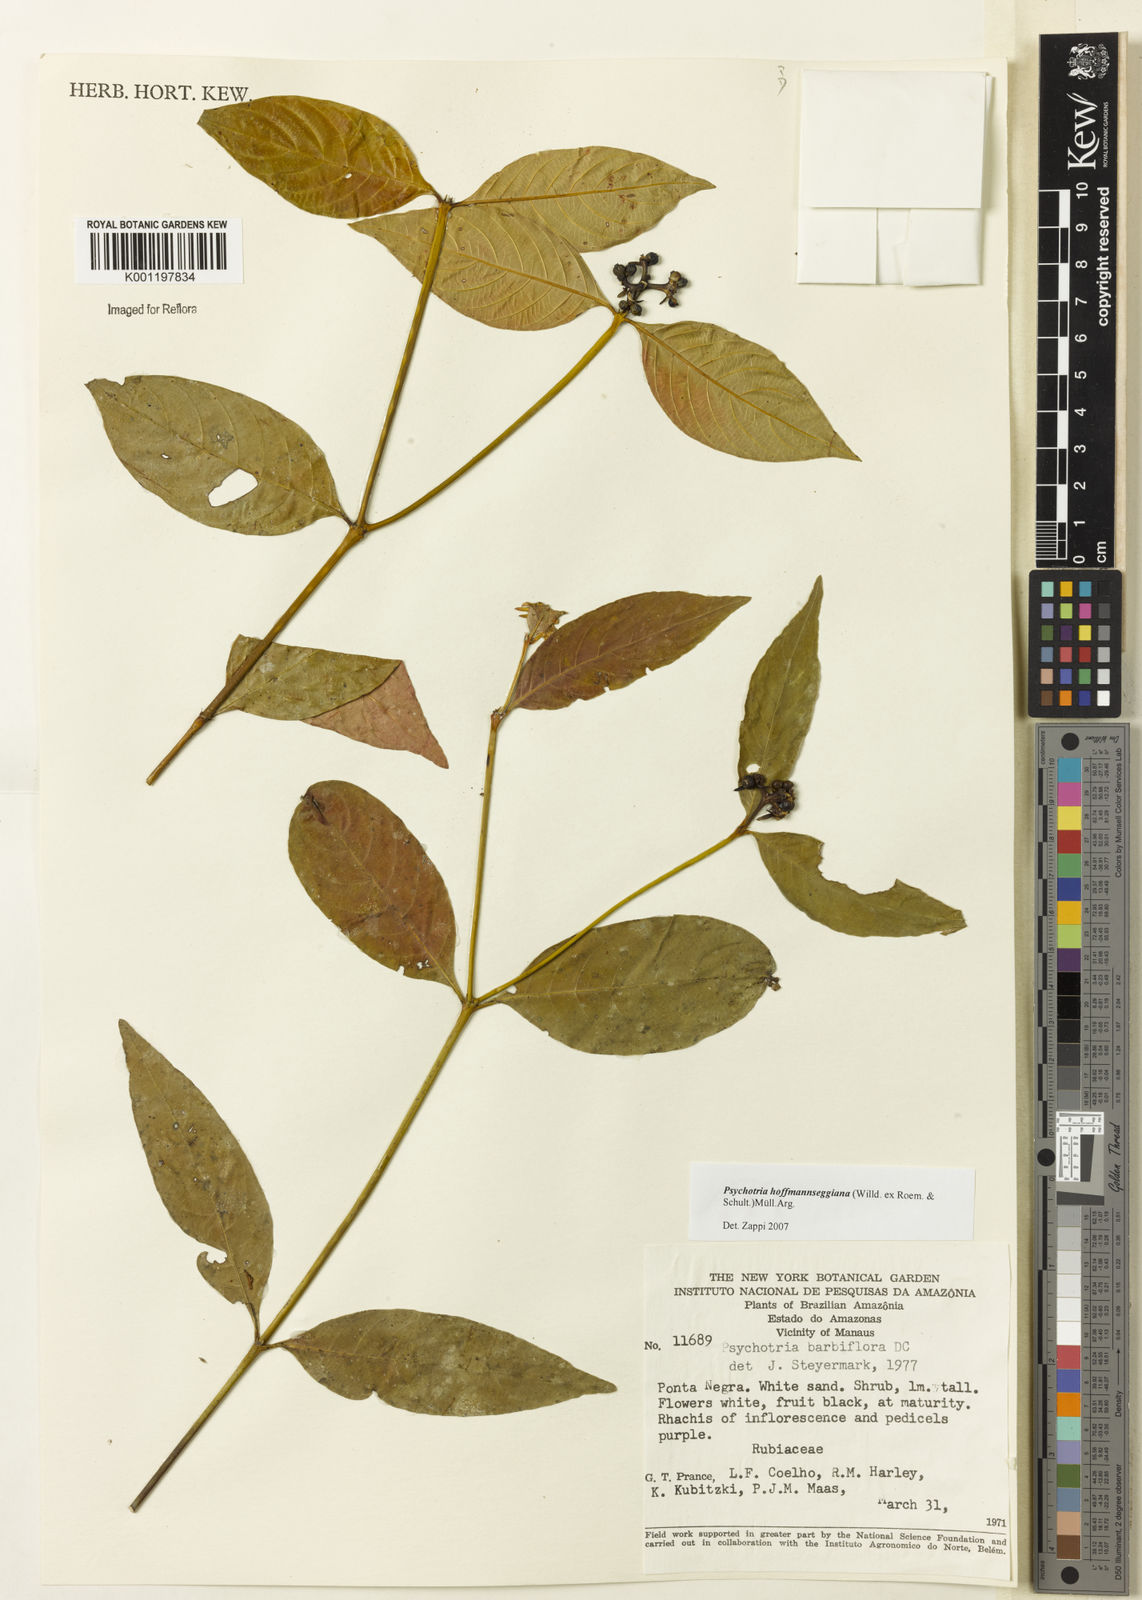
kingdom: Plantae
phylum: Tracheophyta
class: Magnoliopsida
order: Gentianales
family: Rubiaceae
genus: Psychotria
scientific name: Psychotria
